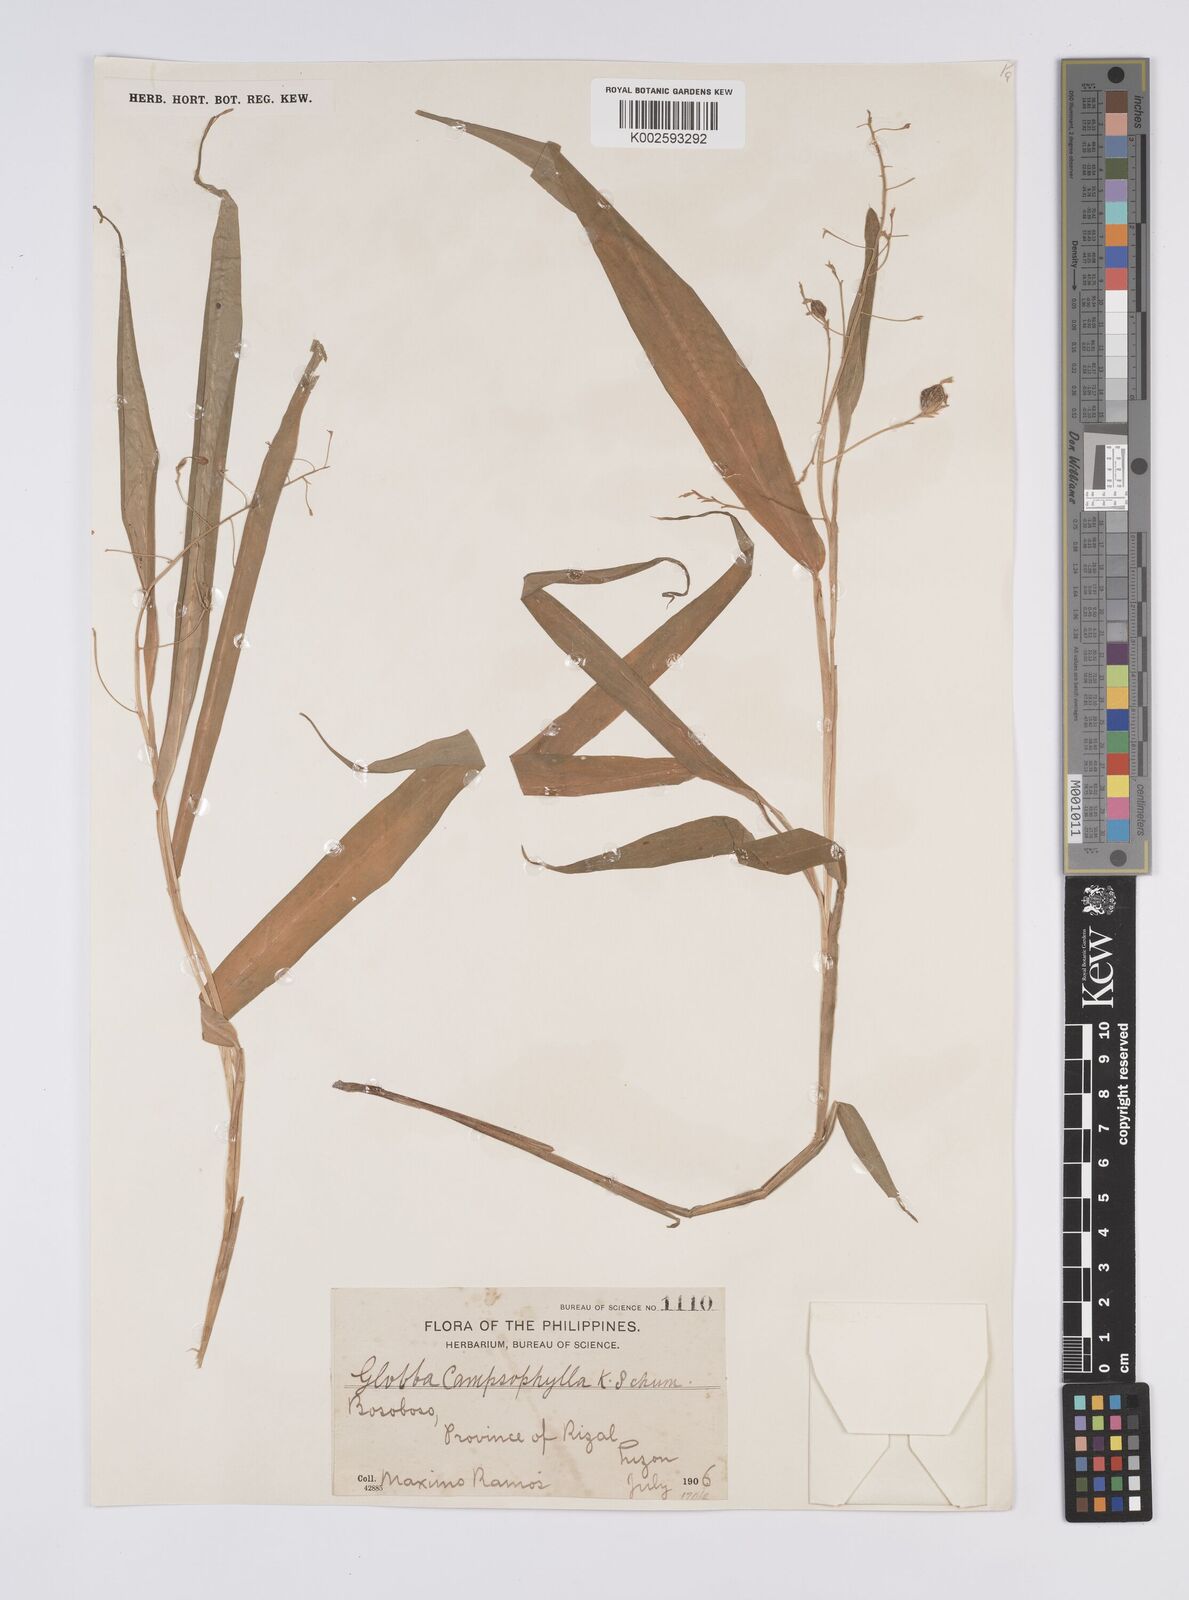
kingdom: Plantae
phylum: Tracheophyta
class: Liliopsida
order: Zingiberales
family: Zingiberaceae
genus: Globba
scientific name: Globba campsophylla
